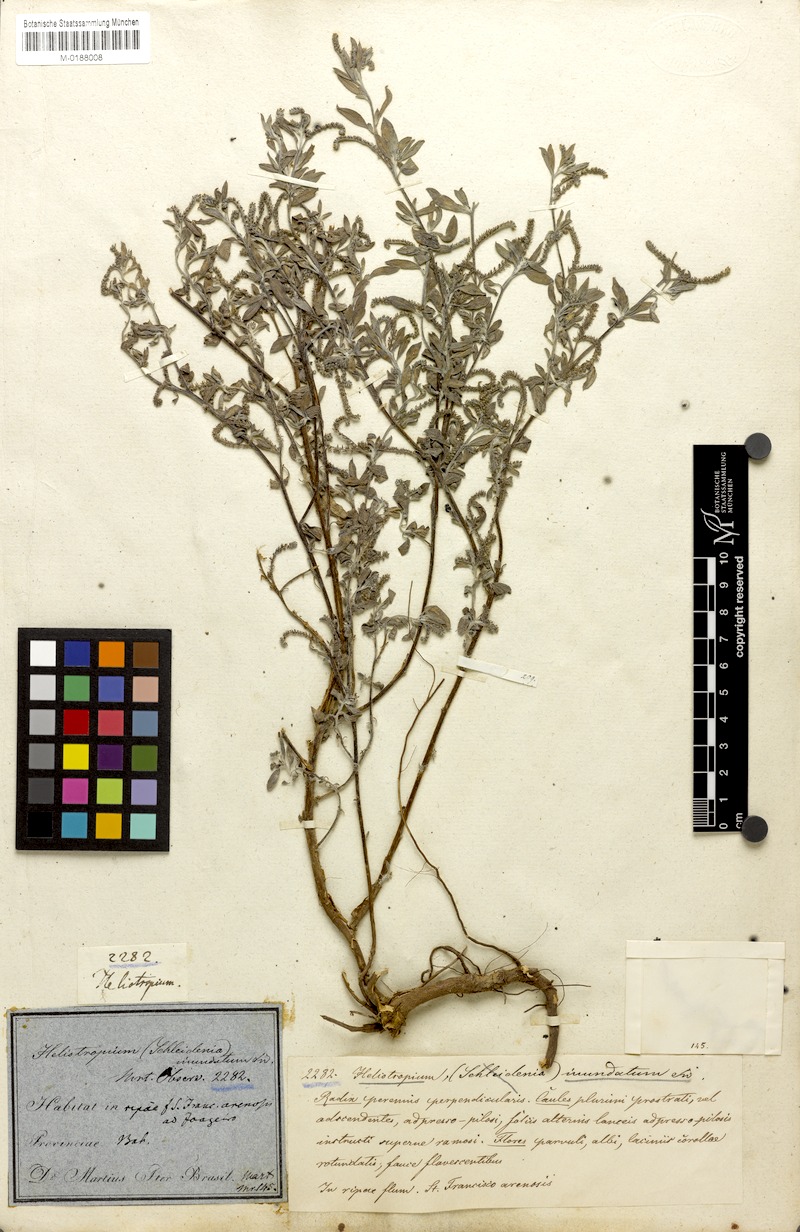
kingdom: Plantae
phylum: Tracheophyta
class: Magnoliopsida
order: Boraginales
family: Heliotropiaceae
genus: Euploca
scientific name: Euploca procumbens
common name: Fourspike heliotrope
